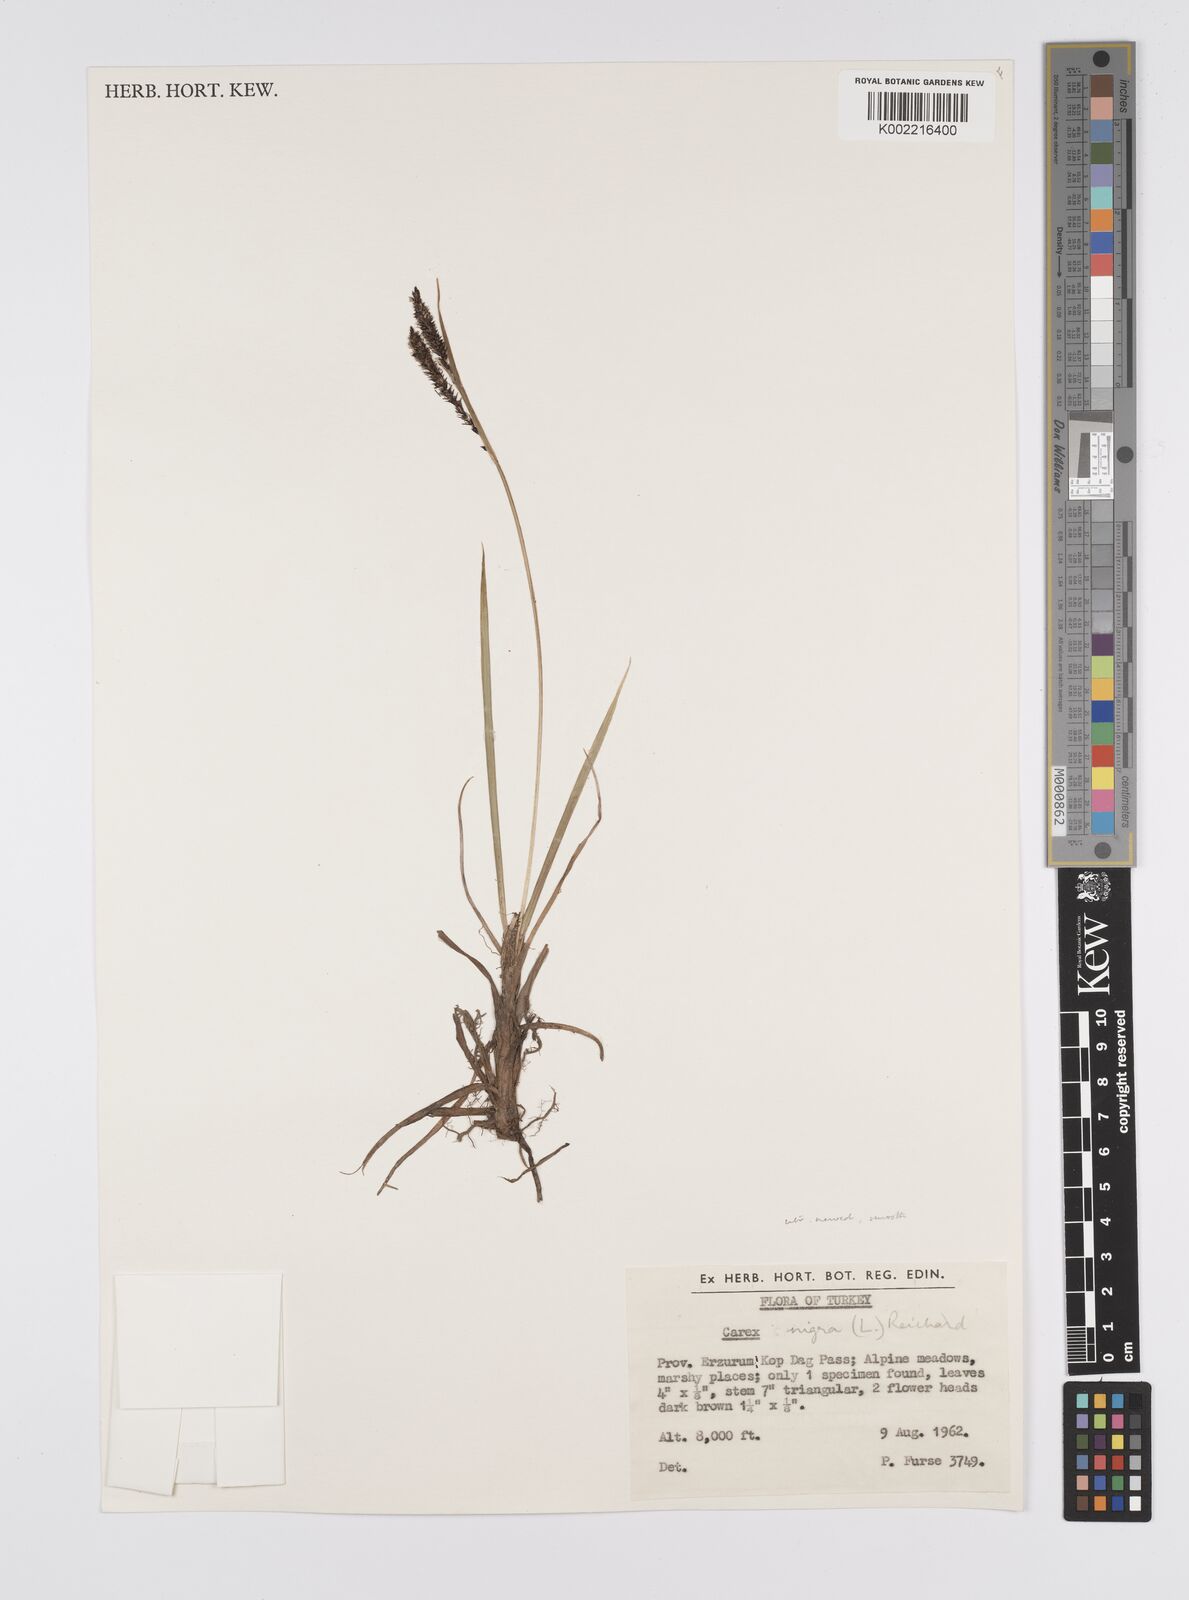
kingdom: Plantae
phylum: Tracheophyta
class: Liliopsida
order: Poales
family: Cyperaceae
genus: Carex
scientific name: Carex dacica
